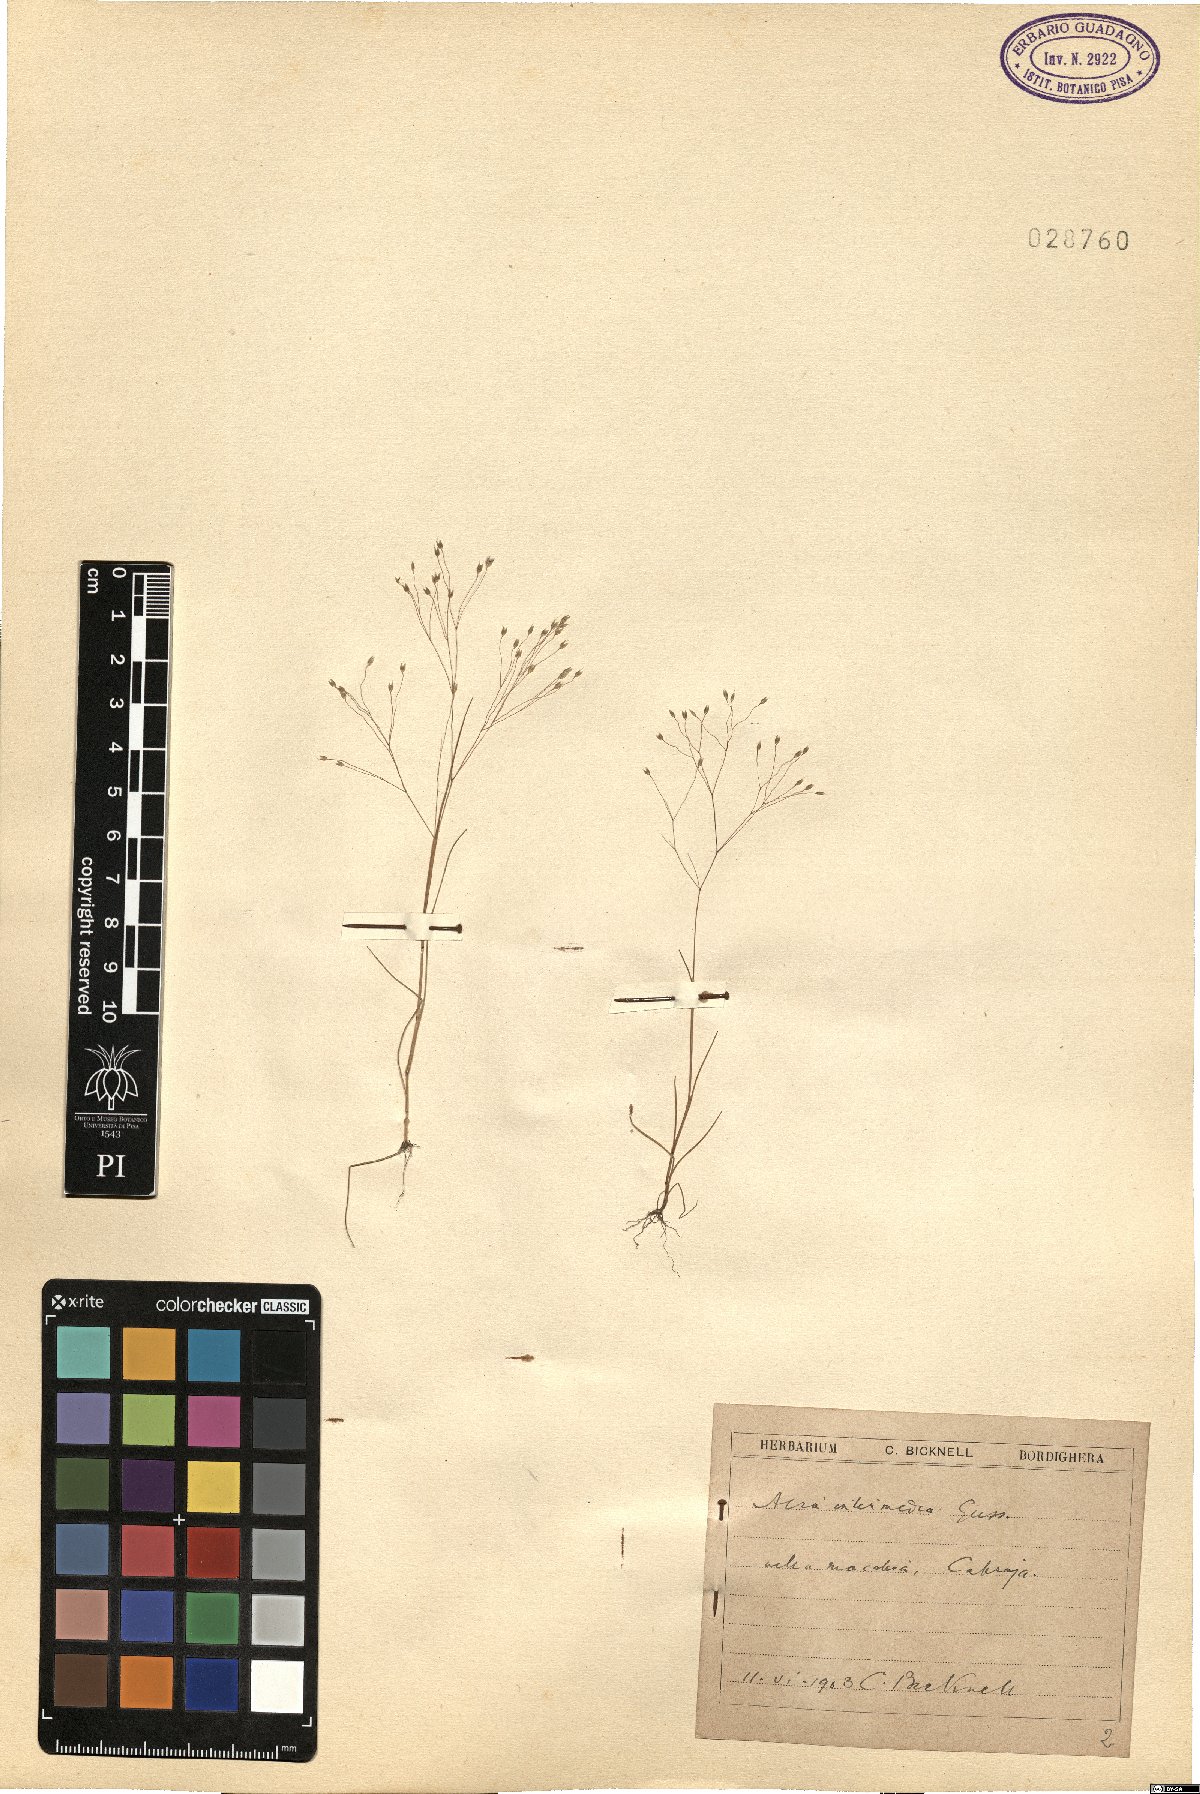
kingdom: Plantae
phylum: Tracheophyta
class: Liliopsida
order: Poales
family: Poaceae
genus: Aira
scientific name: Aira tenorei
